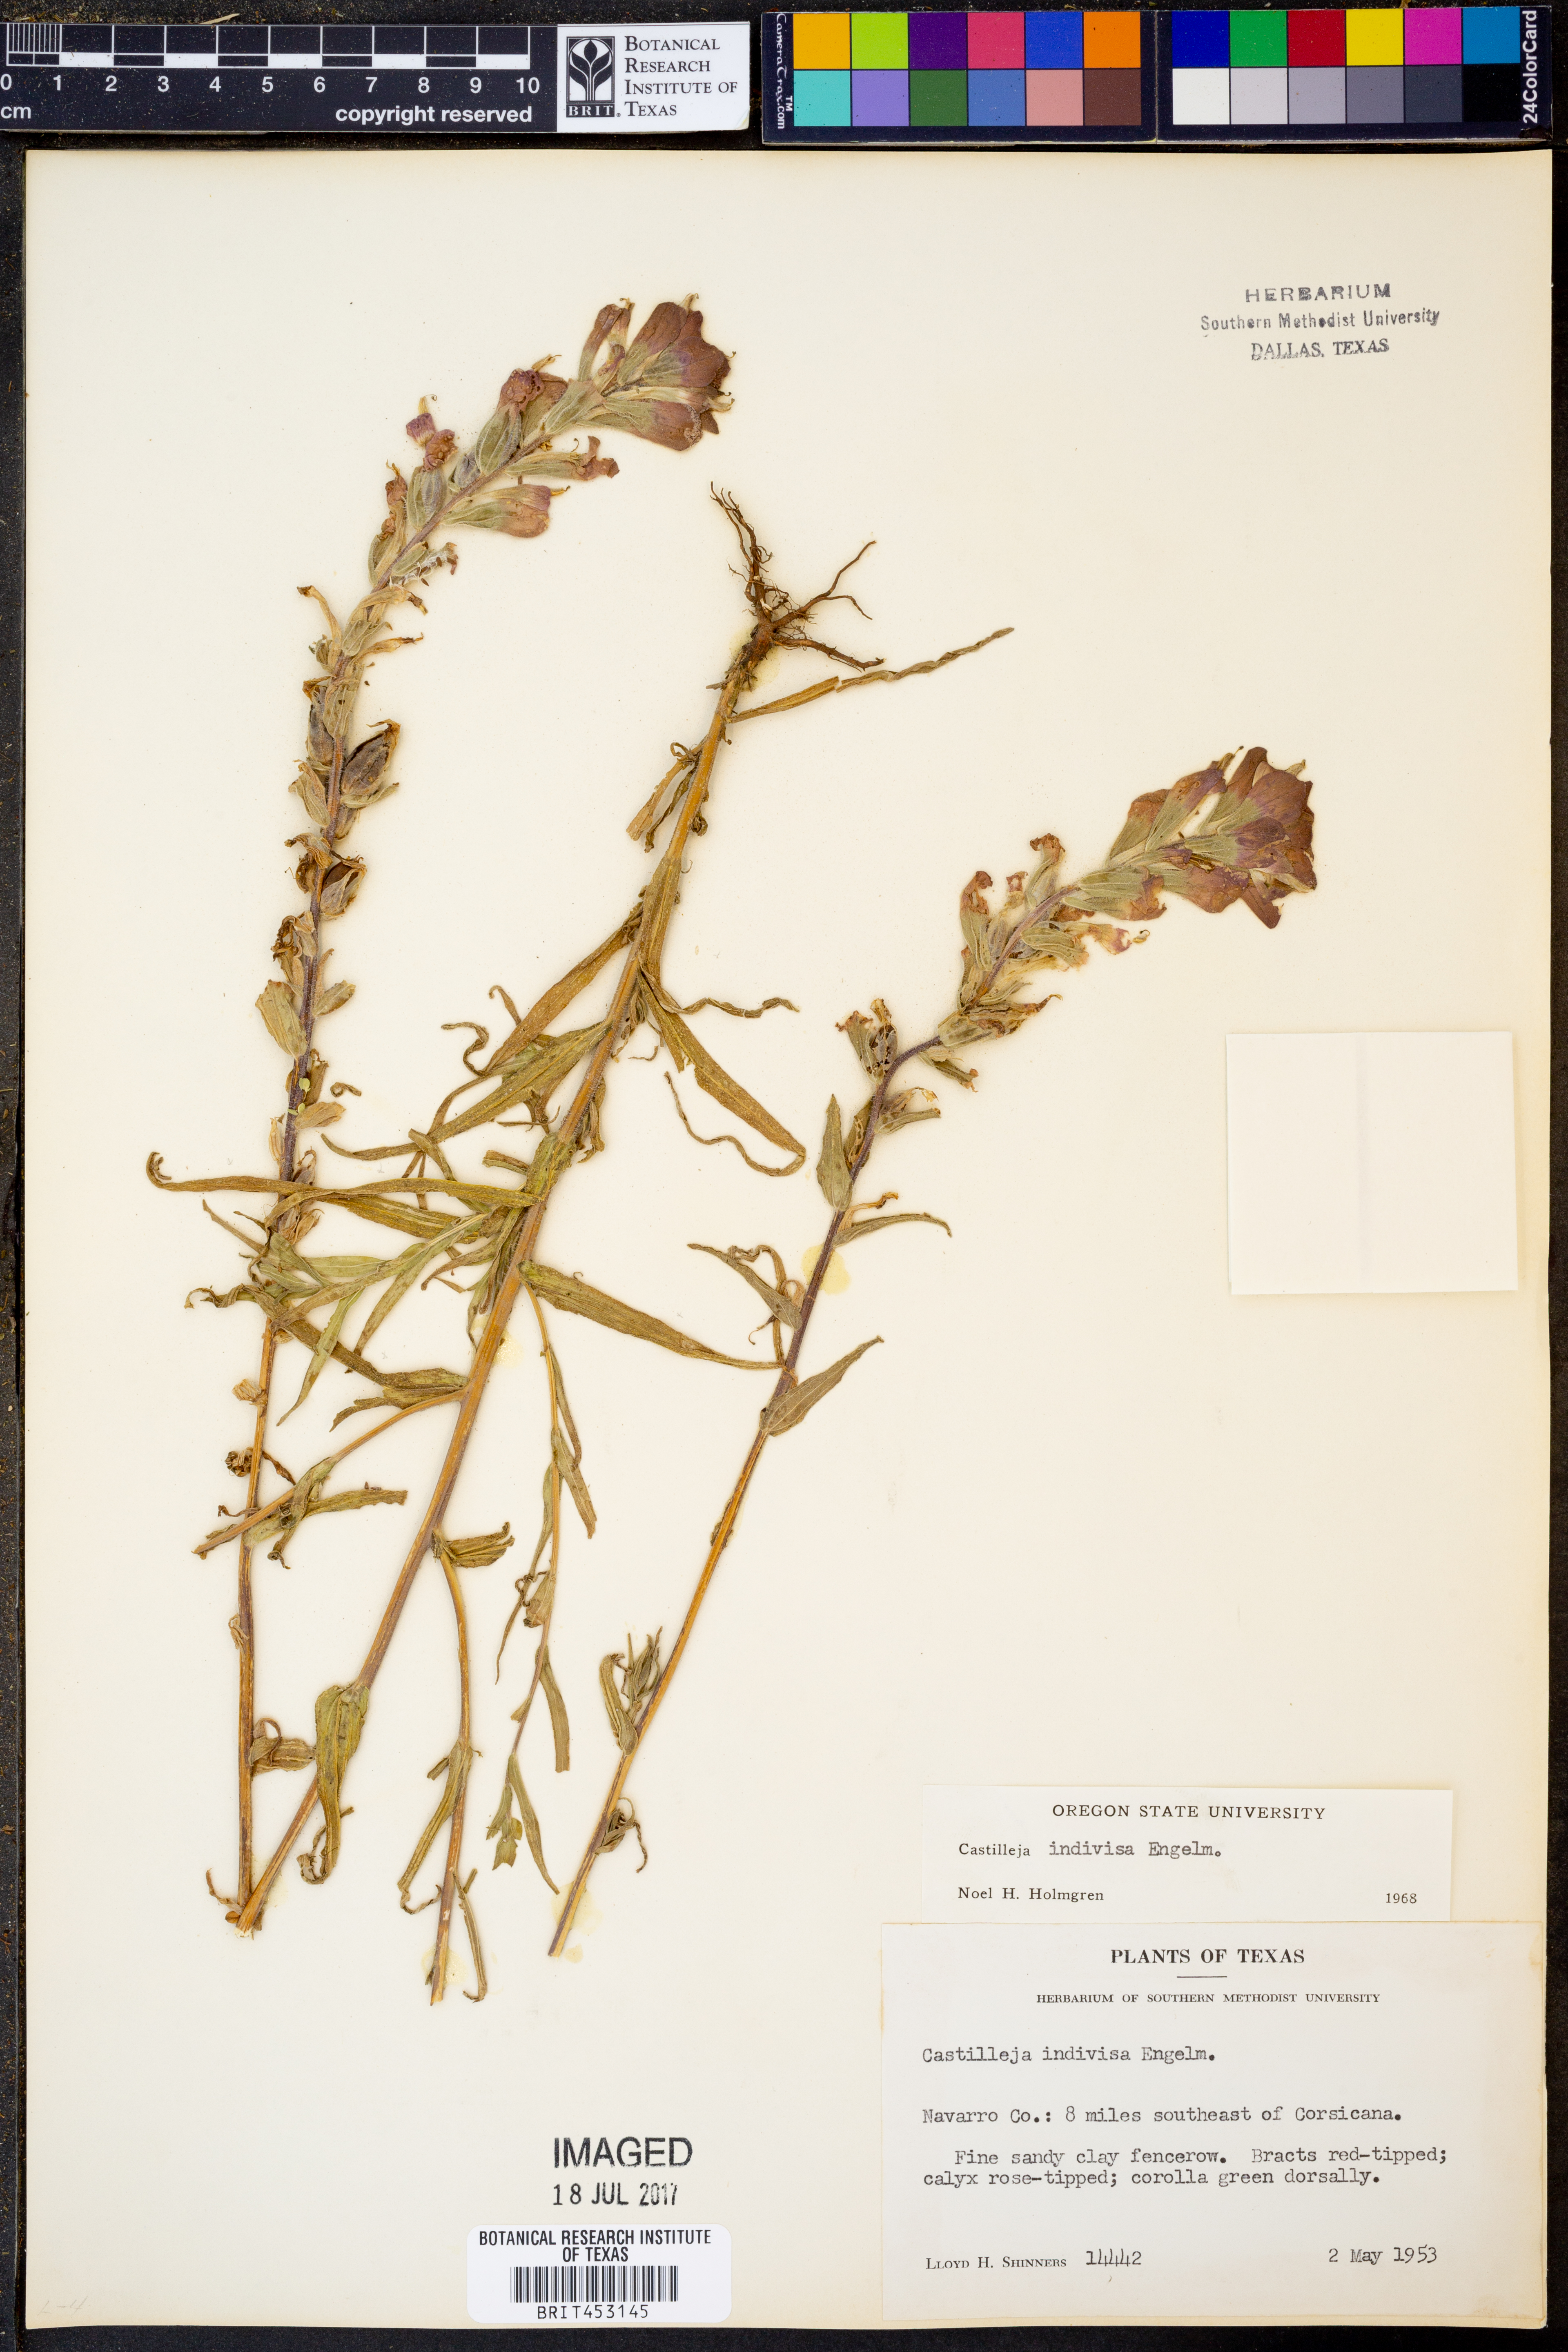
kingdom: Plantae
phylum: Tracheophyta
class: Magnoliopsida
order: Lamiales
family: Orobanchaceae
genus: Castilleja
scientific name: Castilleja indivisa
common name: Texas paintbrush
